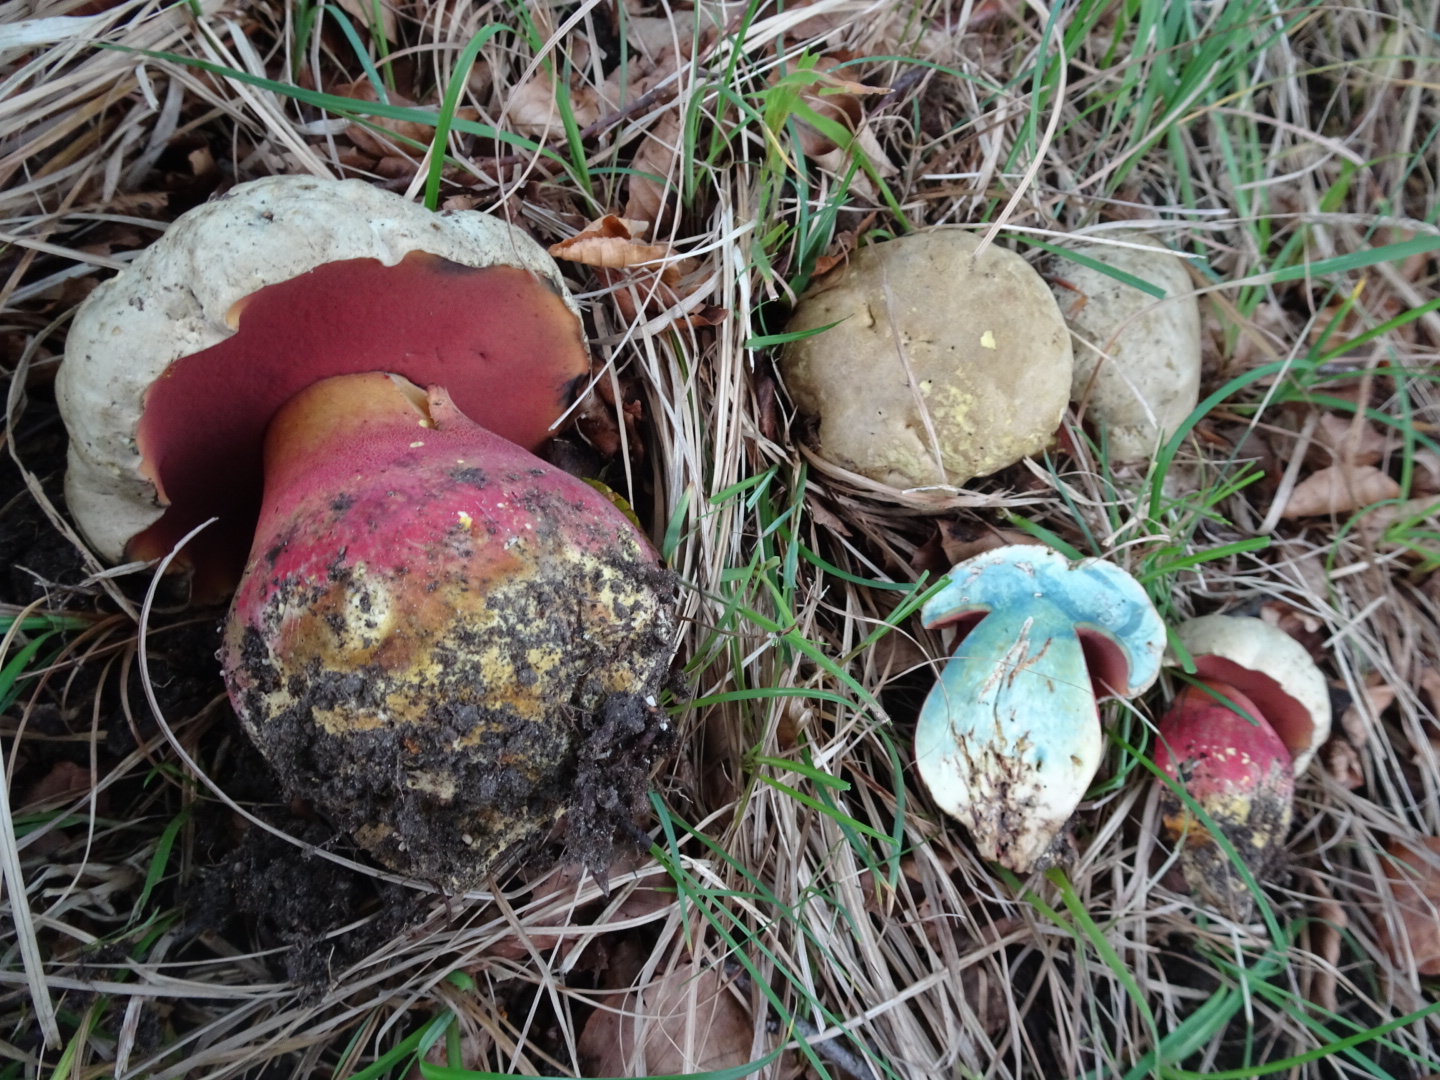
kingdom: Fungi
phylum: Basidiomycota
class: Agaricomycetes
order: Boletales
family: Boletaceae
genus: Rubroboletus
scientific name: Rubroboletus satanas
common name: Satans rørhat
